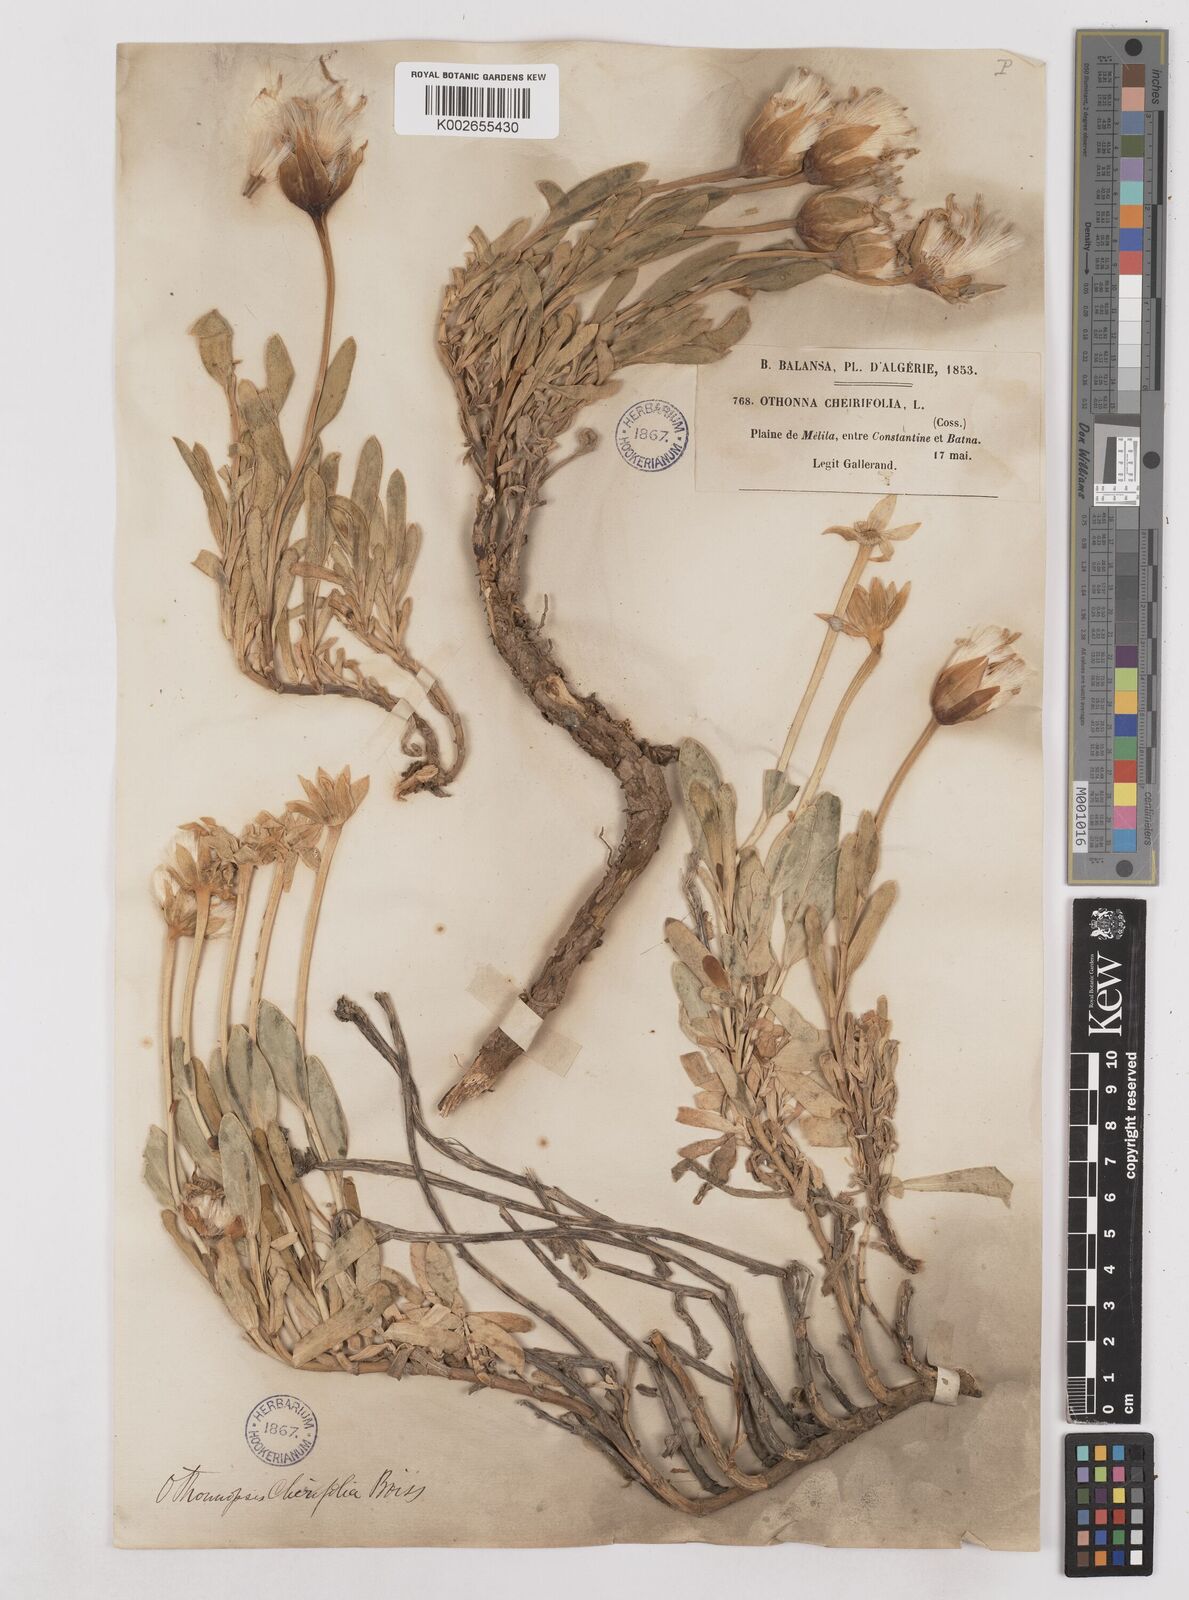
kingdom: Plantae
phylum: Tracheophyta
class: Magnoliopsida
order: Asterales
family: Asteraceae
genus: Hertia
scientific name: Hertia cheirifolia
